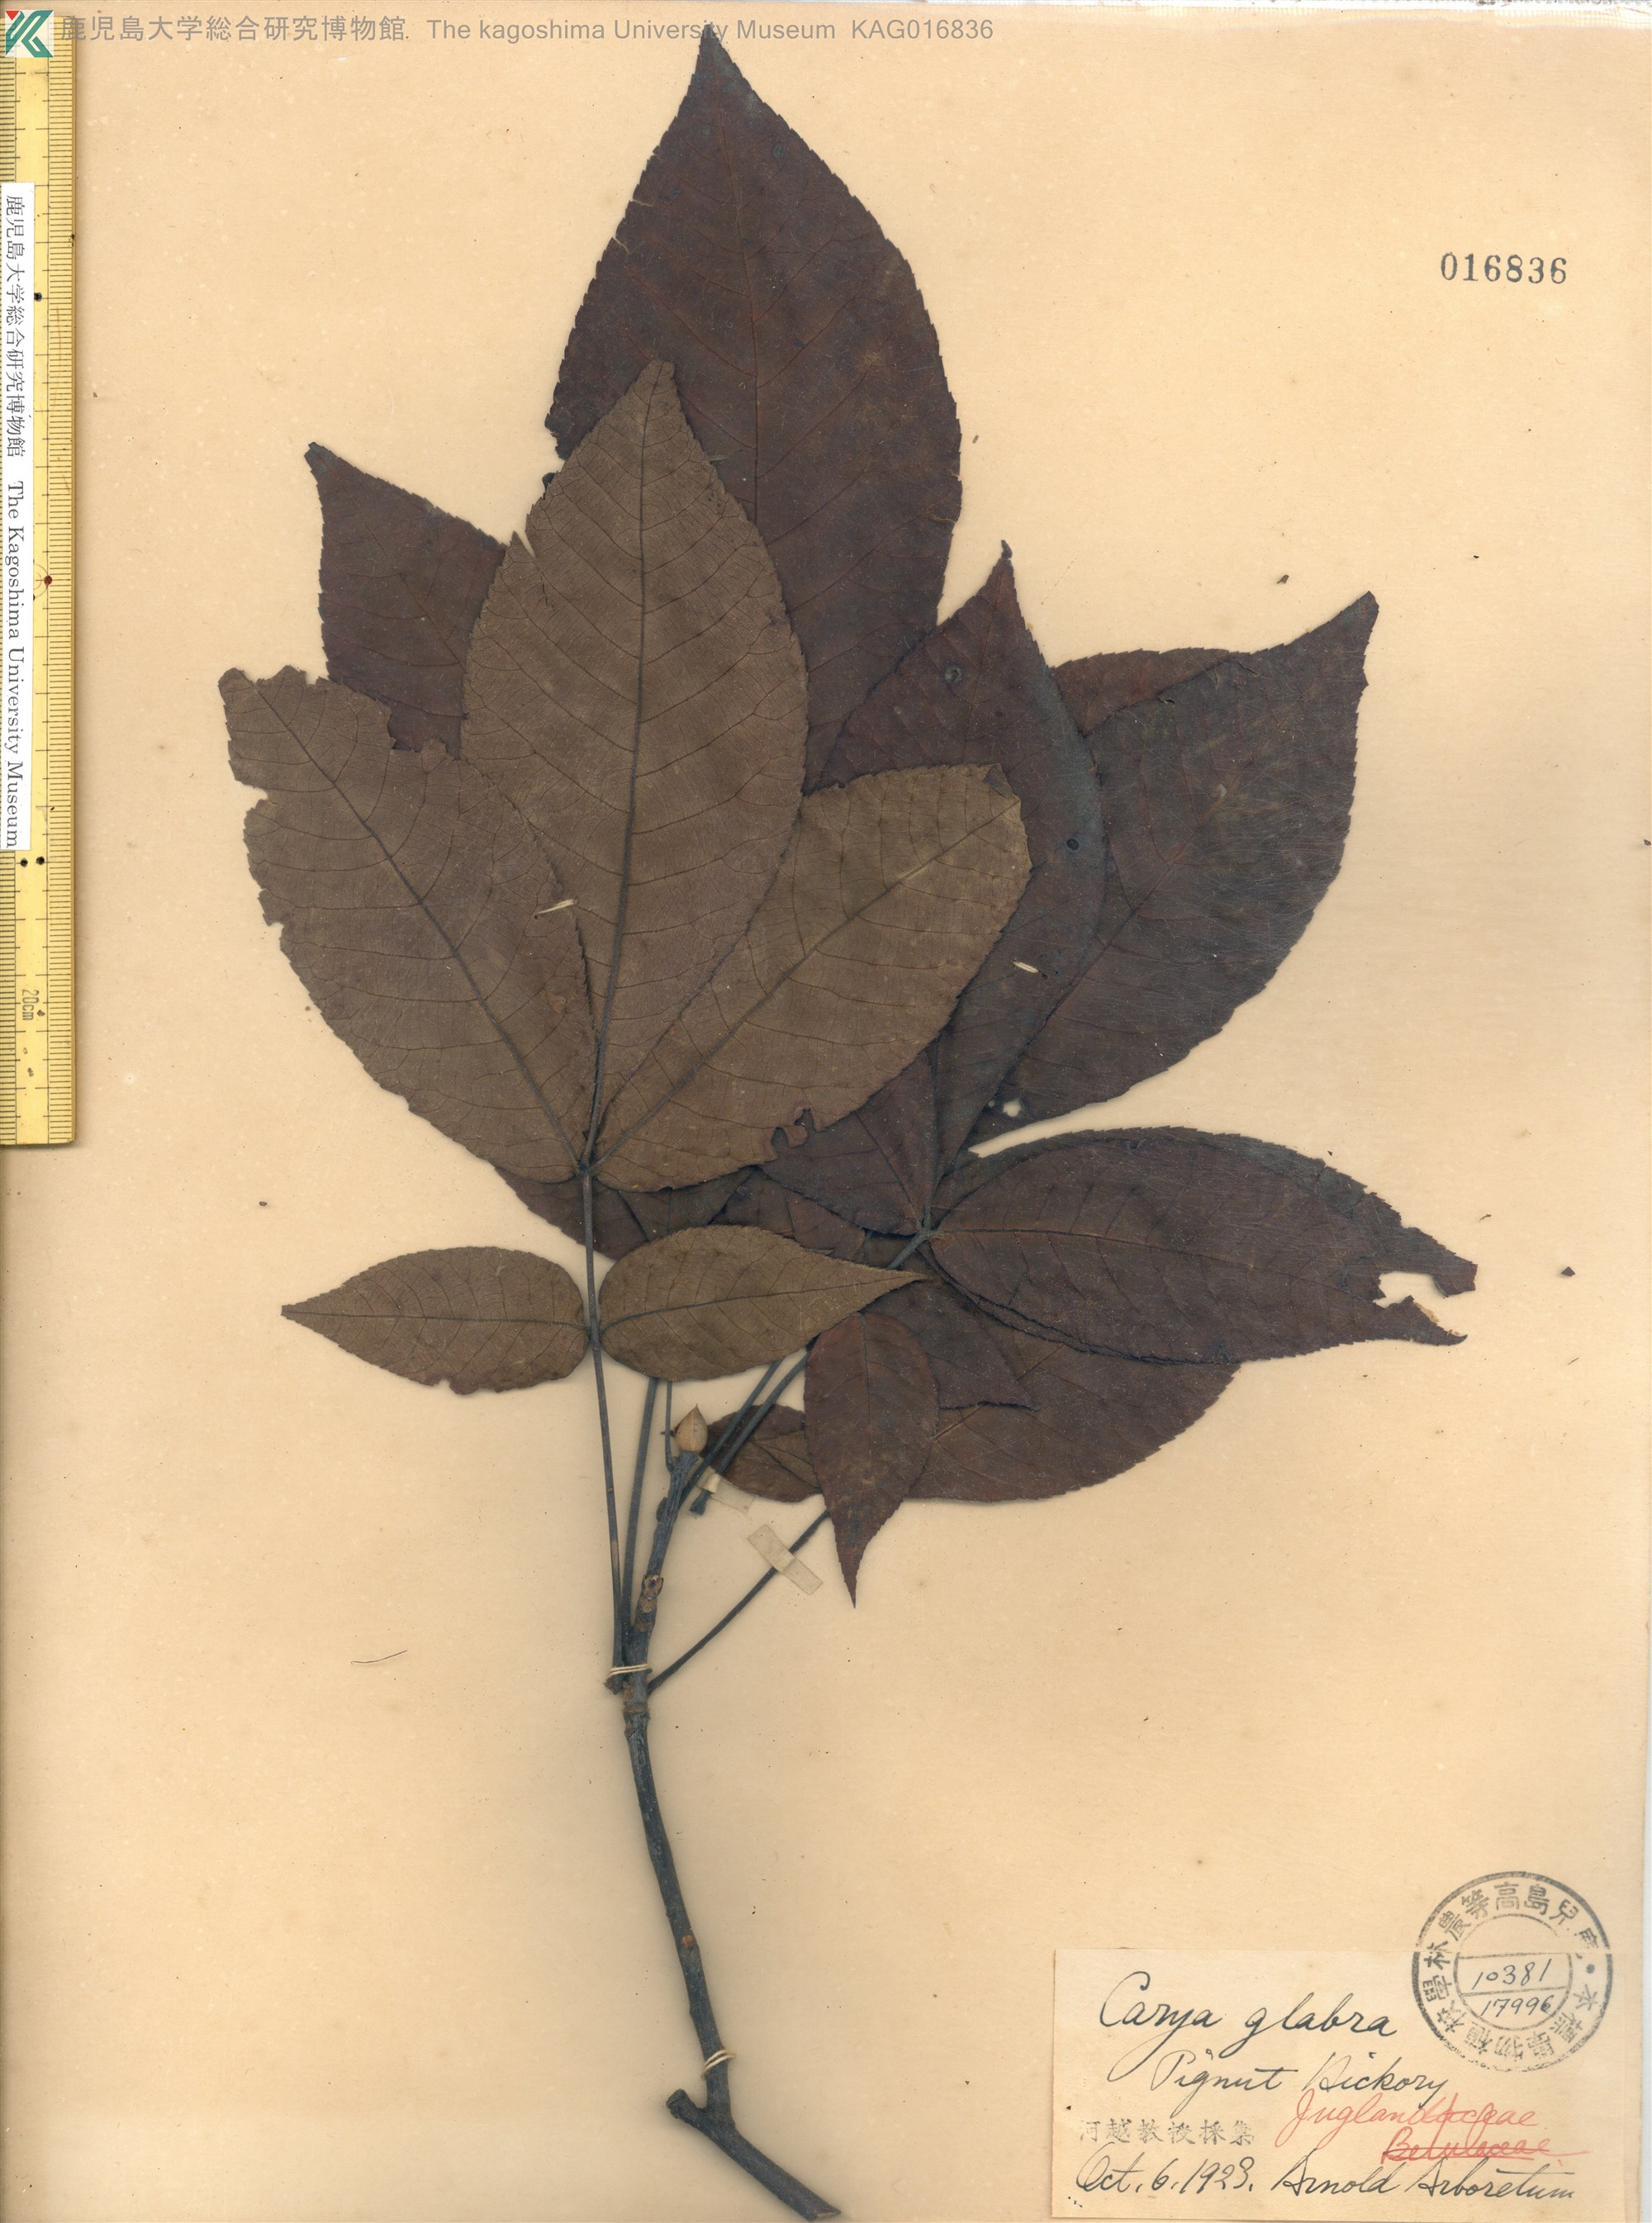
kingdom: Plantae
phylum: Tracheophyta
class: Magnoliopsida
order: Fagales
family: Juglandaceae
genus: Carya
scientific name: Carya glabra
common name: Pignut hickory
